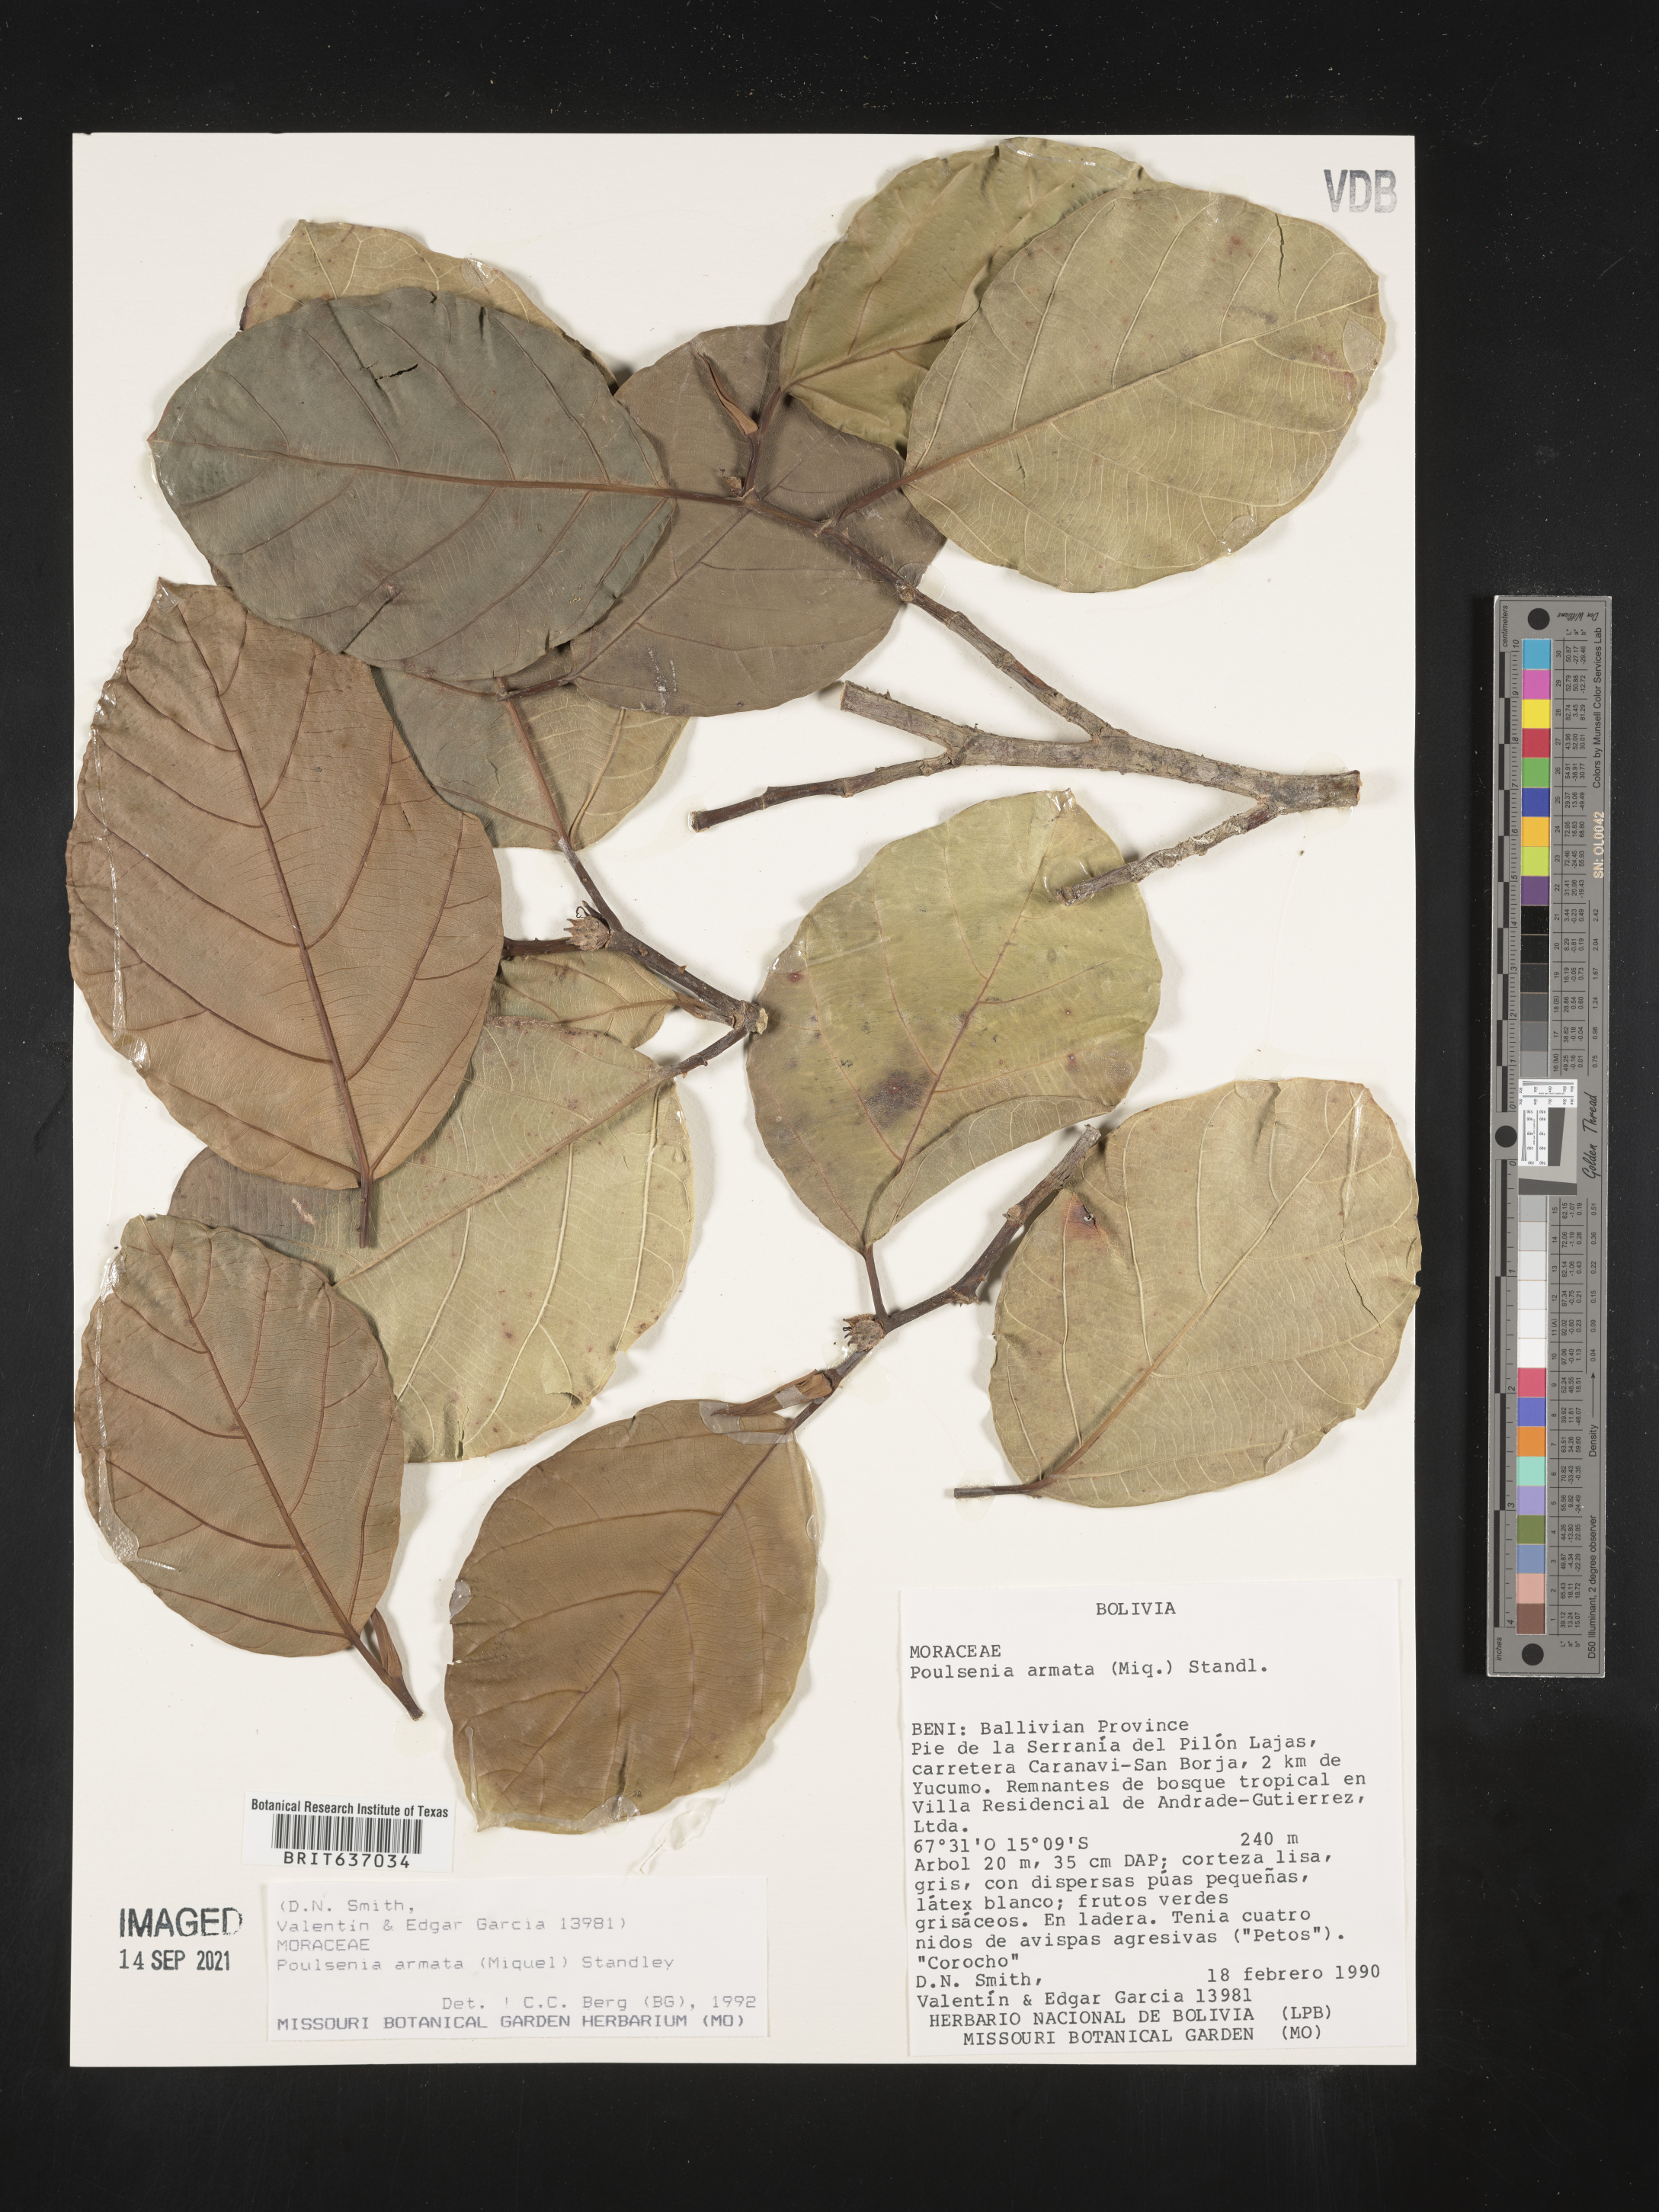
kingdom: Plantae
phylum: Tracheophyta
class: Magnoliopsida
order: Rosales
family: Moraceae
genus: Poulsenia
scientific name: Poulsenia
